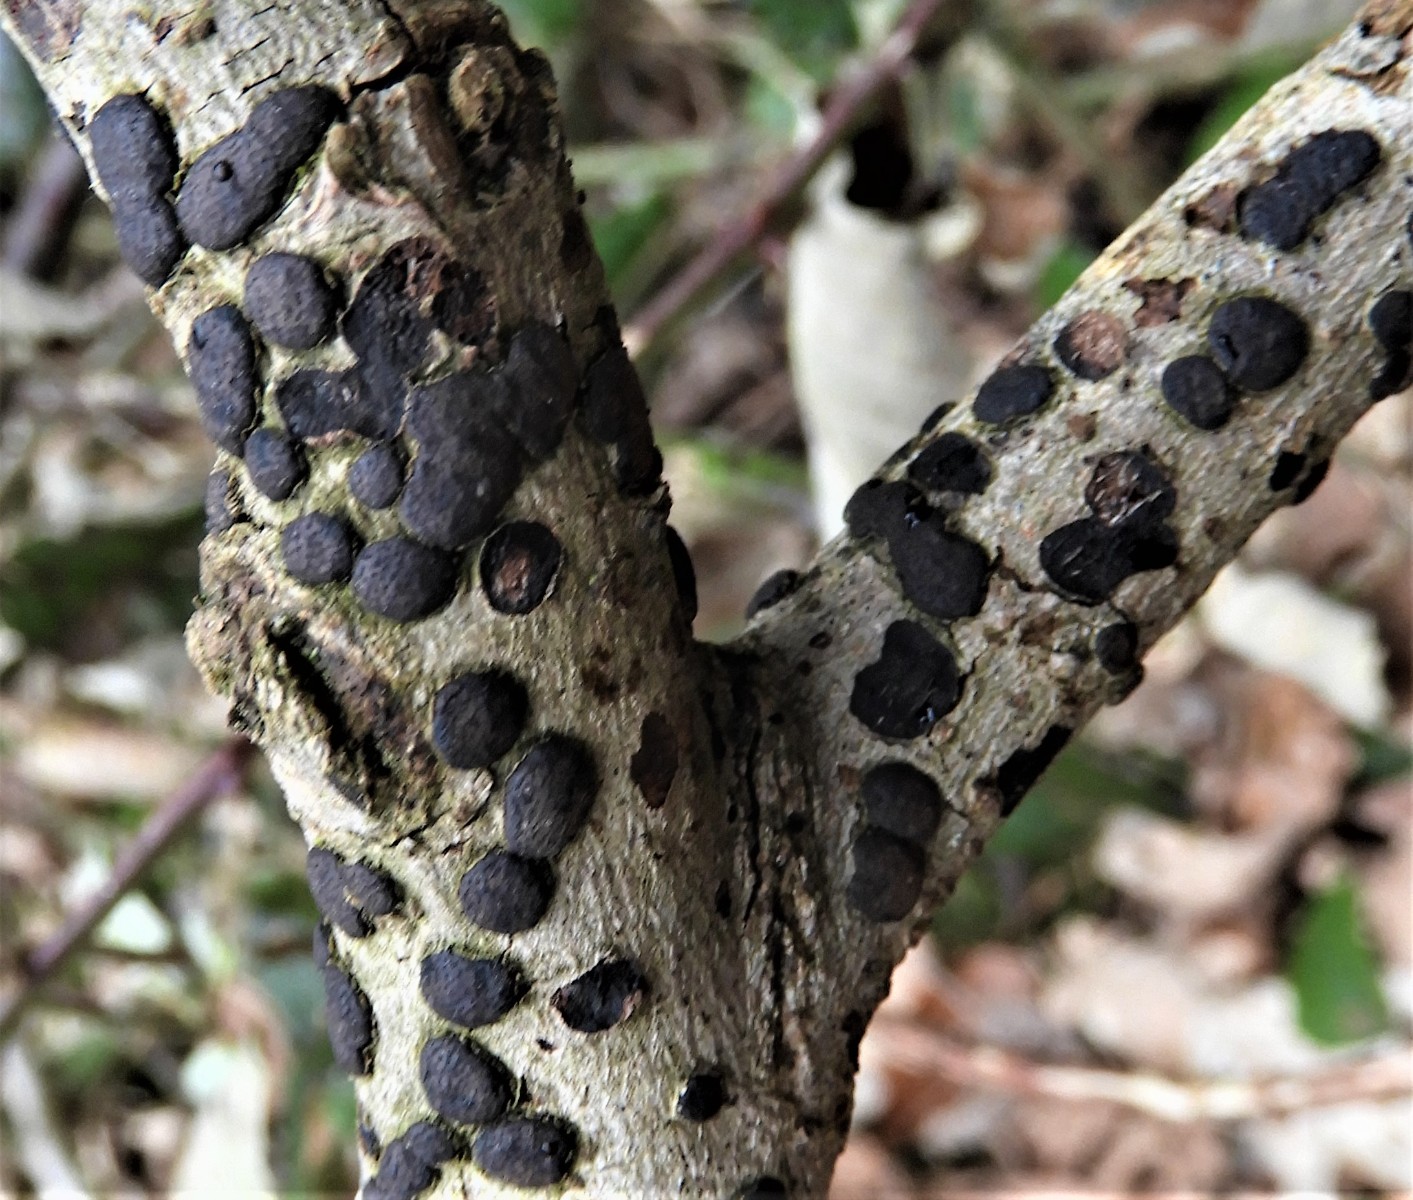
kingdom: Fungi
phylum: Ascomycota
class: Sordariomycetes
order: Xylariales
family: Diatrypaceae
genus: Diatrype
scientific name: Diatrype bullata
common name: pile-kulskorpe
